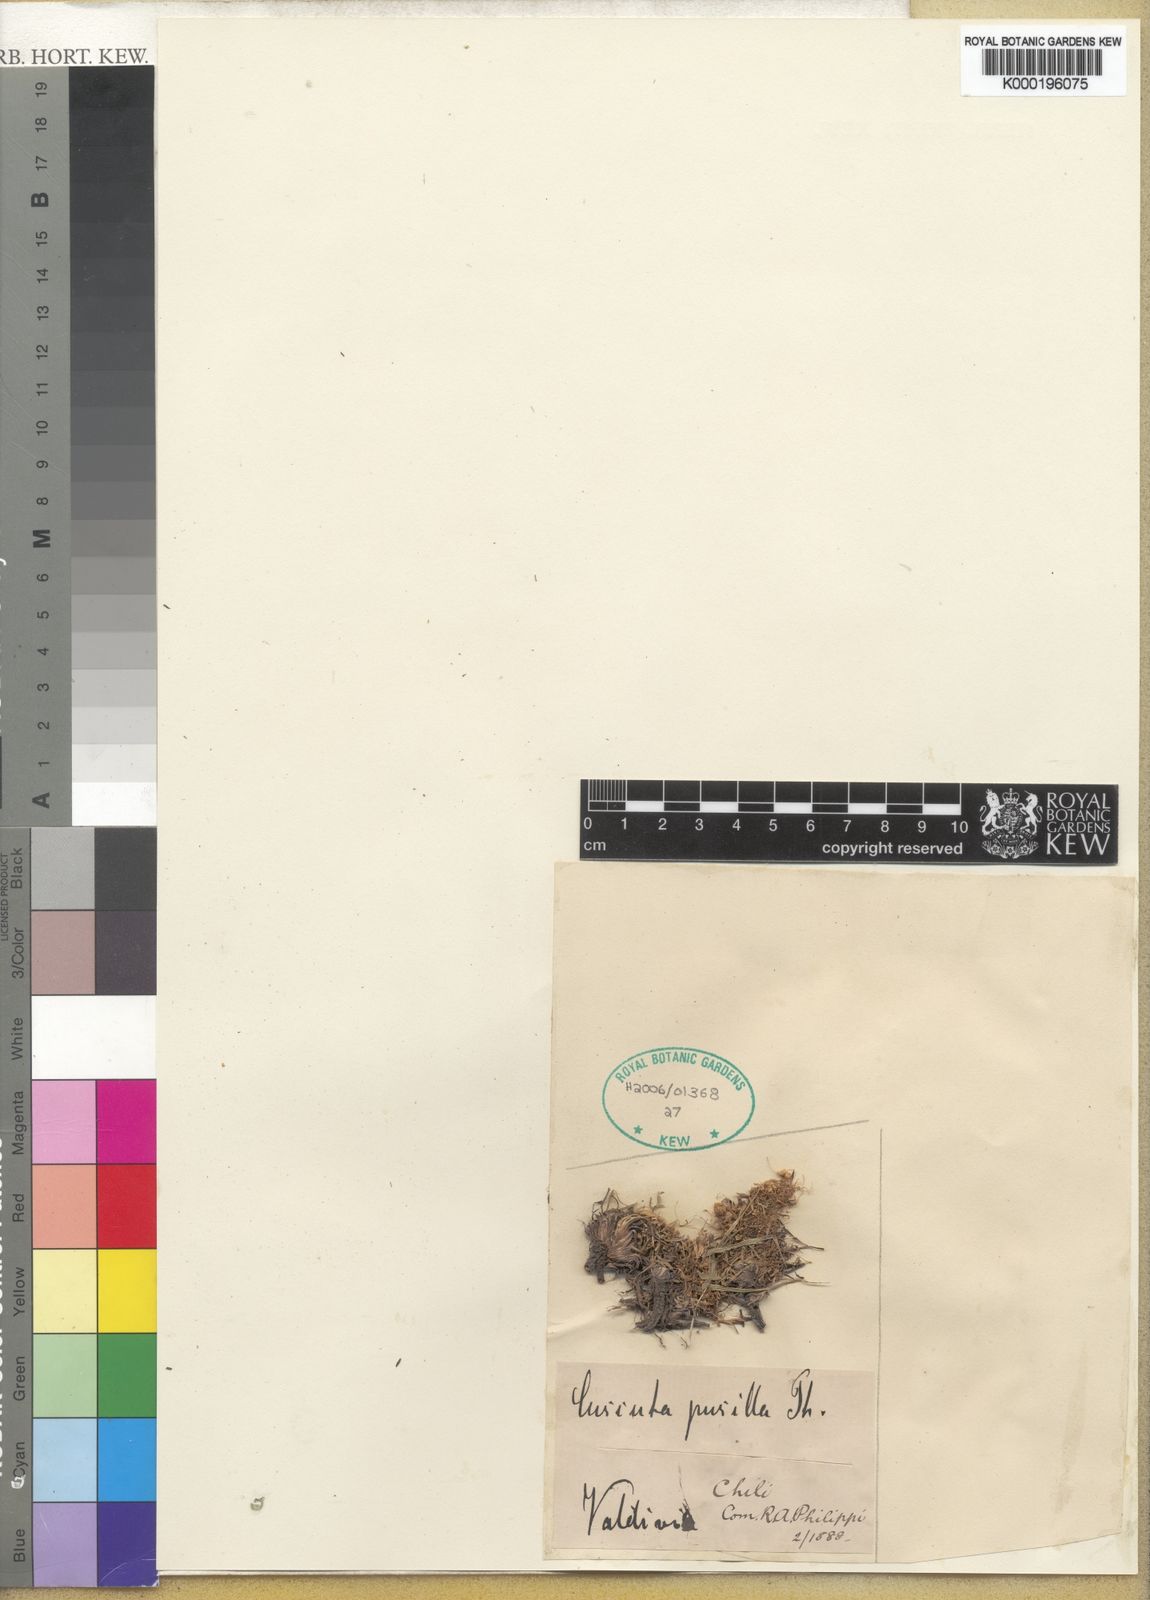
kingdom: Plantae
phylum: Tracheophyta
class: Magnoliopsida
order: Solanales
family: Convolvulaceae
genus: Cuscuta
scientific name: Cuscuta pusilla
